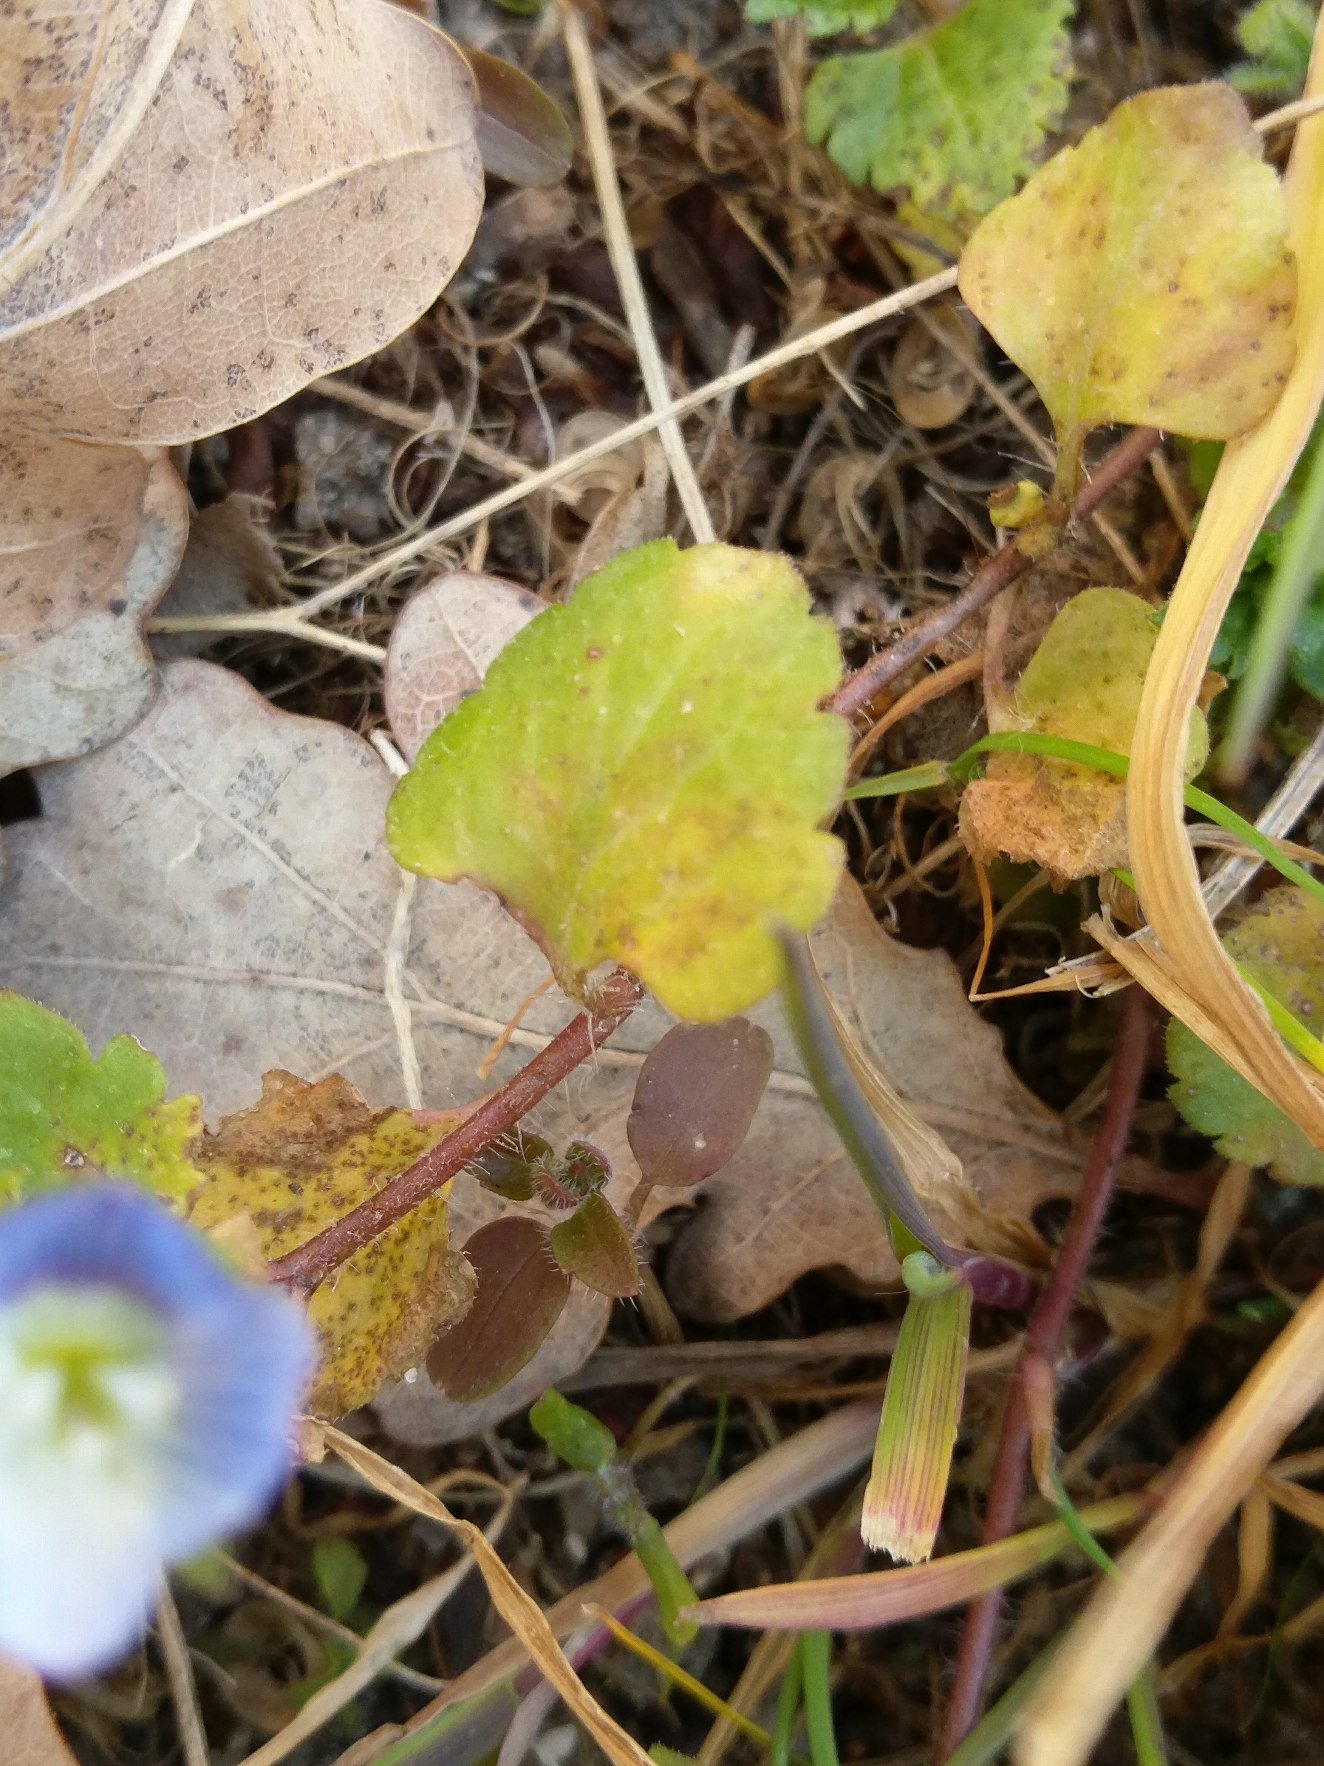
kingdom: Plantae
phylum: Tracheophyta
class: Magnoliopsida
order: Lamiales
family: Plantaginaceae
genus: Veronica
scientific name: Veronica persica
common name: Storkronet ærenpris
